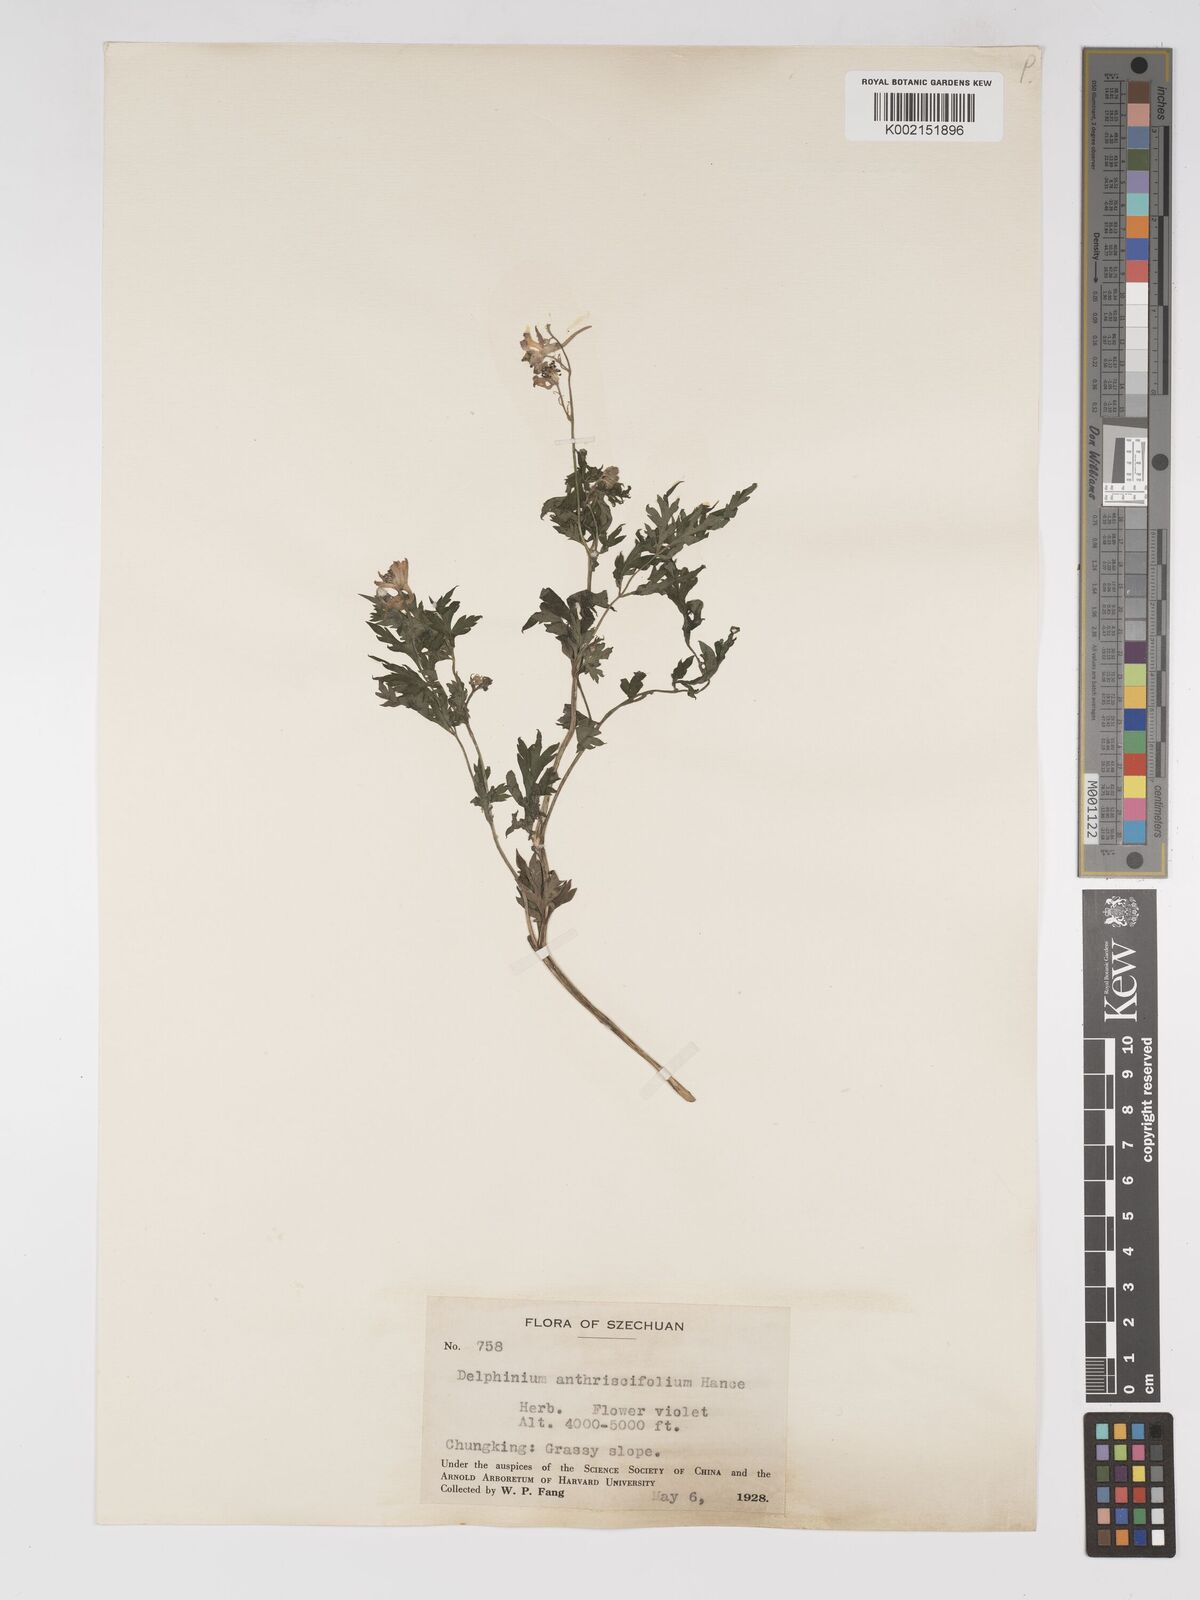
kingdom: Plantae
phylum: Tracheophyta
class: Magnoliopsida
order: Ranunculales
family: Ranunculaceae
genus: Delphinium
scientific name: Delphinium anthriscifolium
